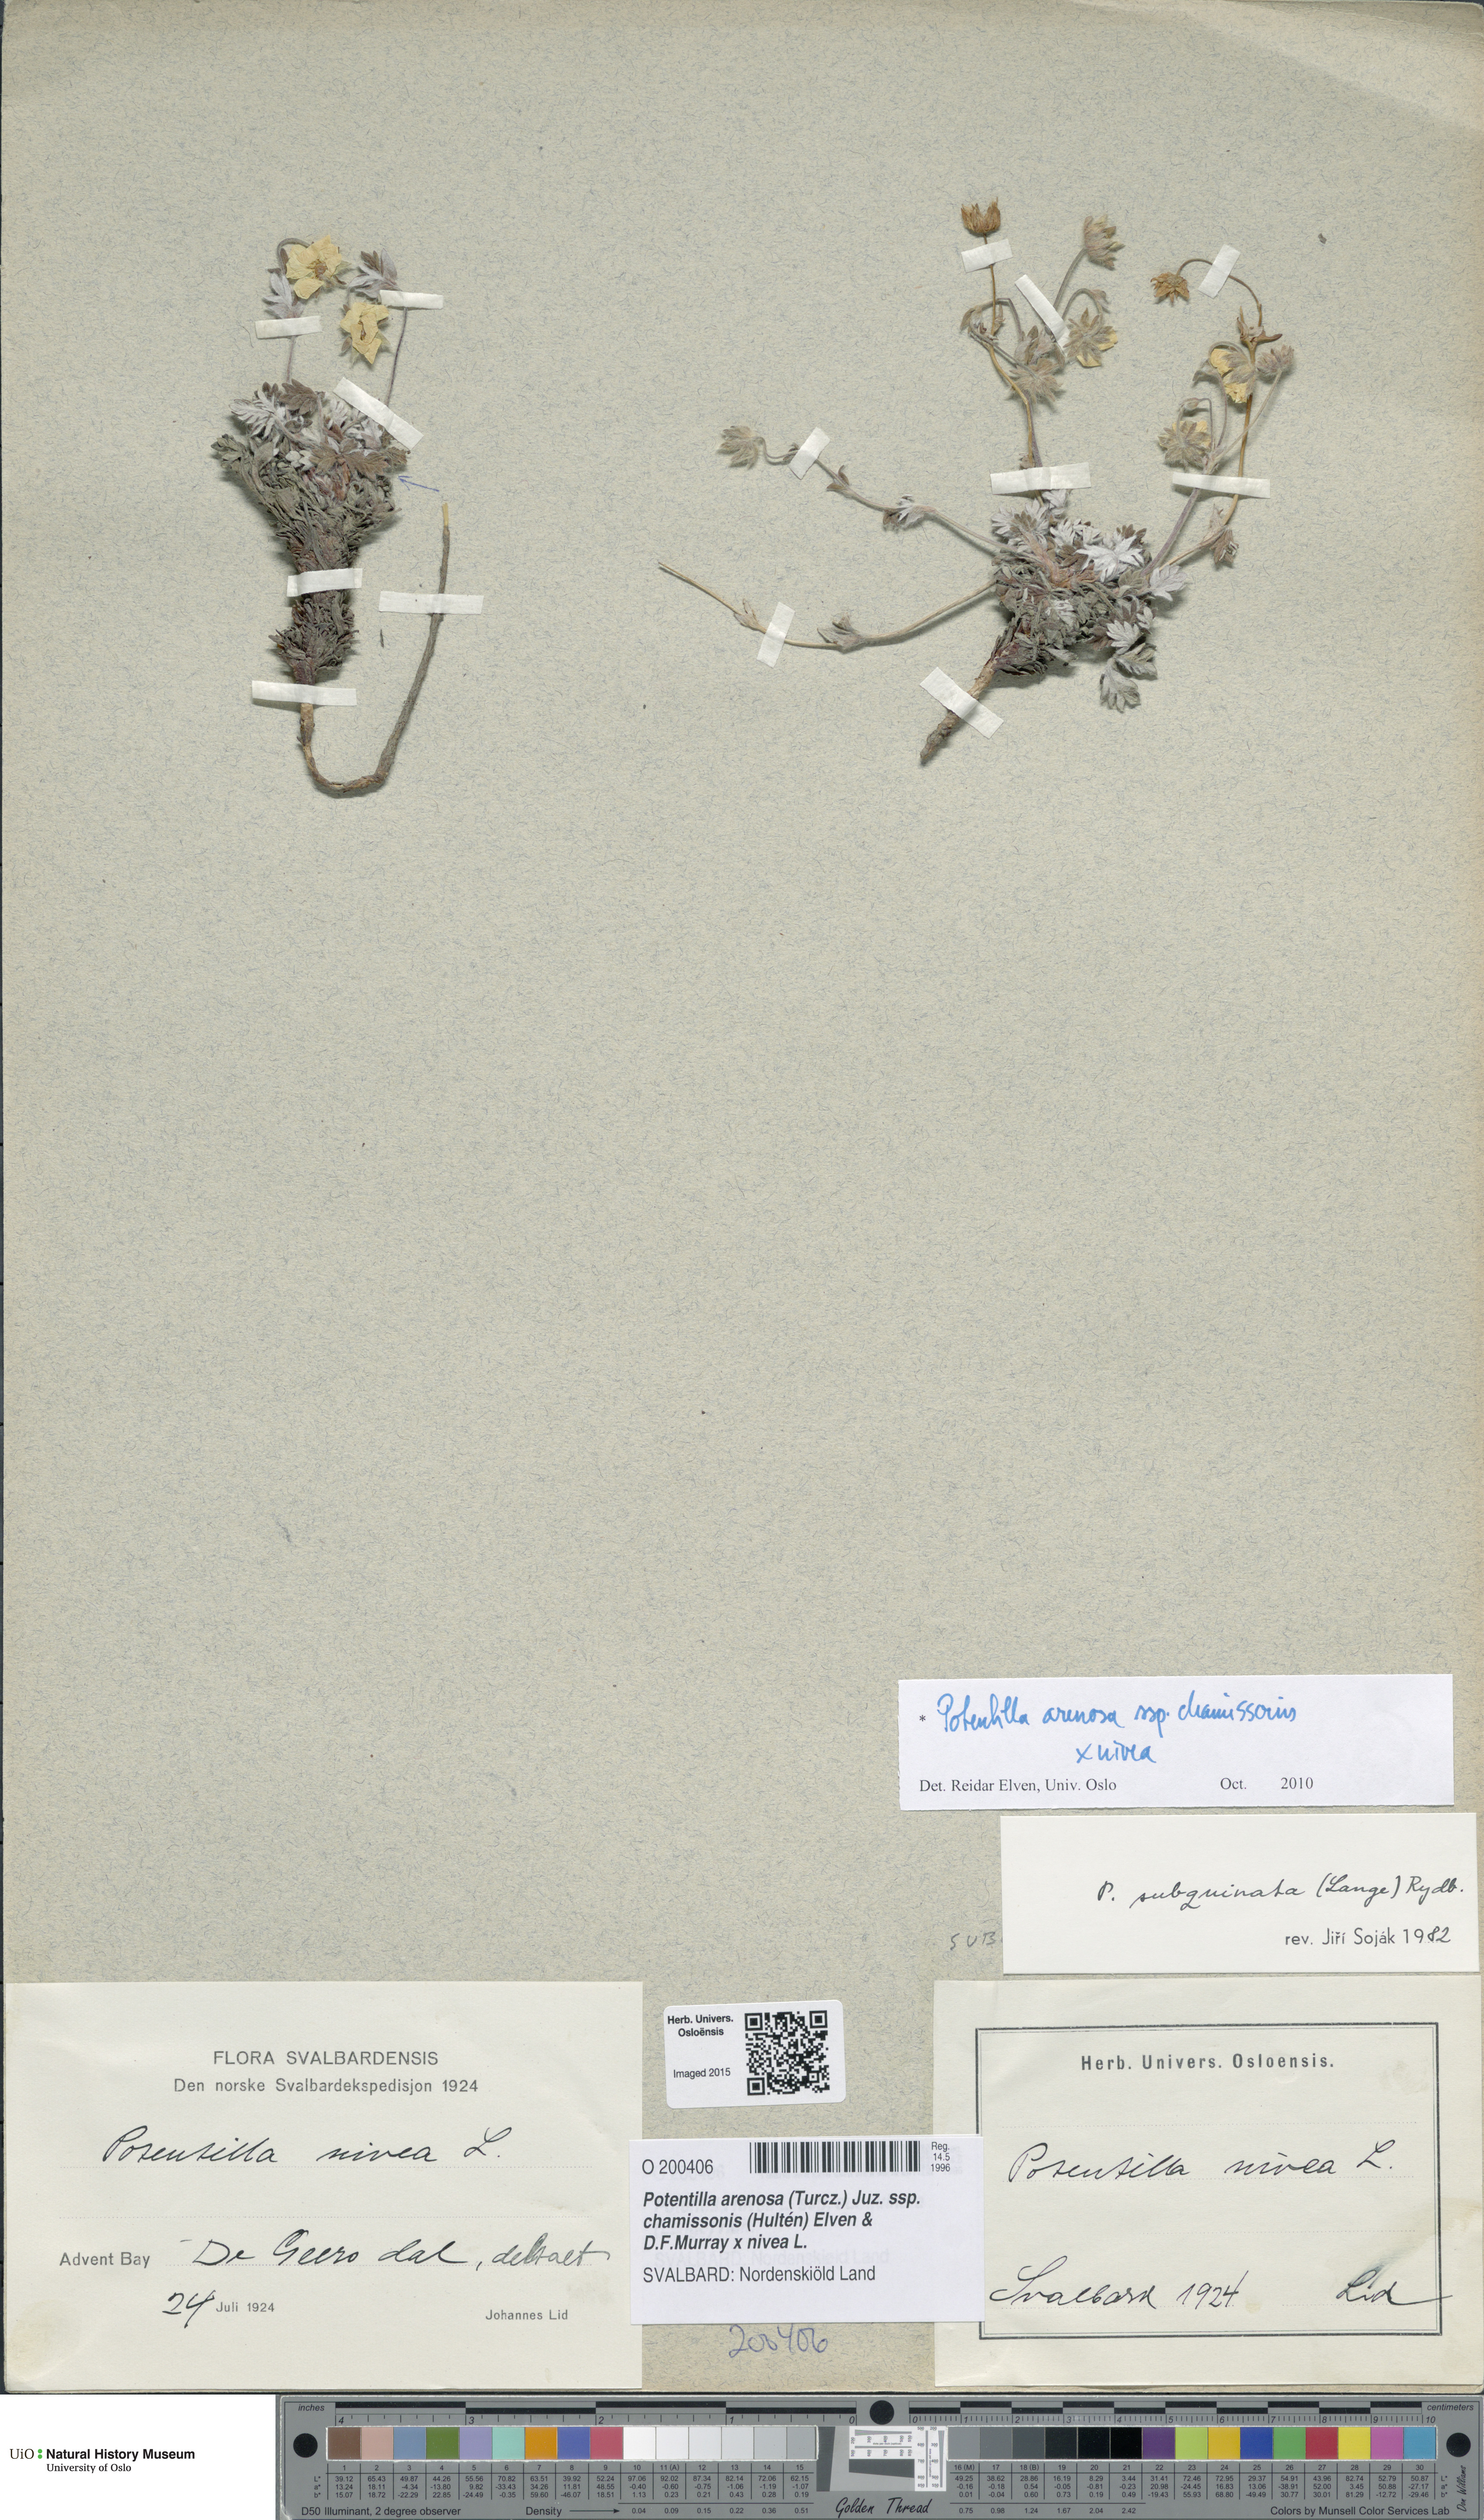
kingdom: Plantae
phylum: Tracheophyta
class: Magnoliopsida
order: Rosales
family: Rosaceae
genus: Potentilla
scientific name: Potentilla
